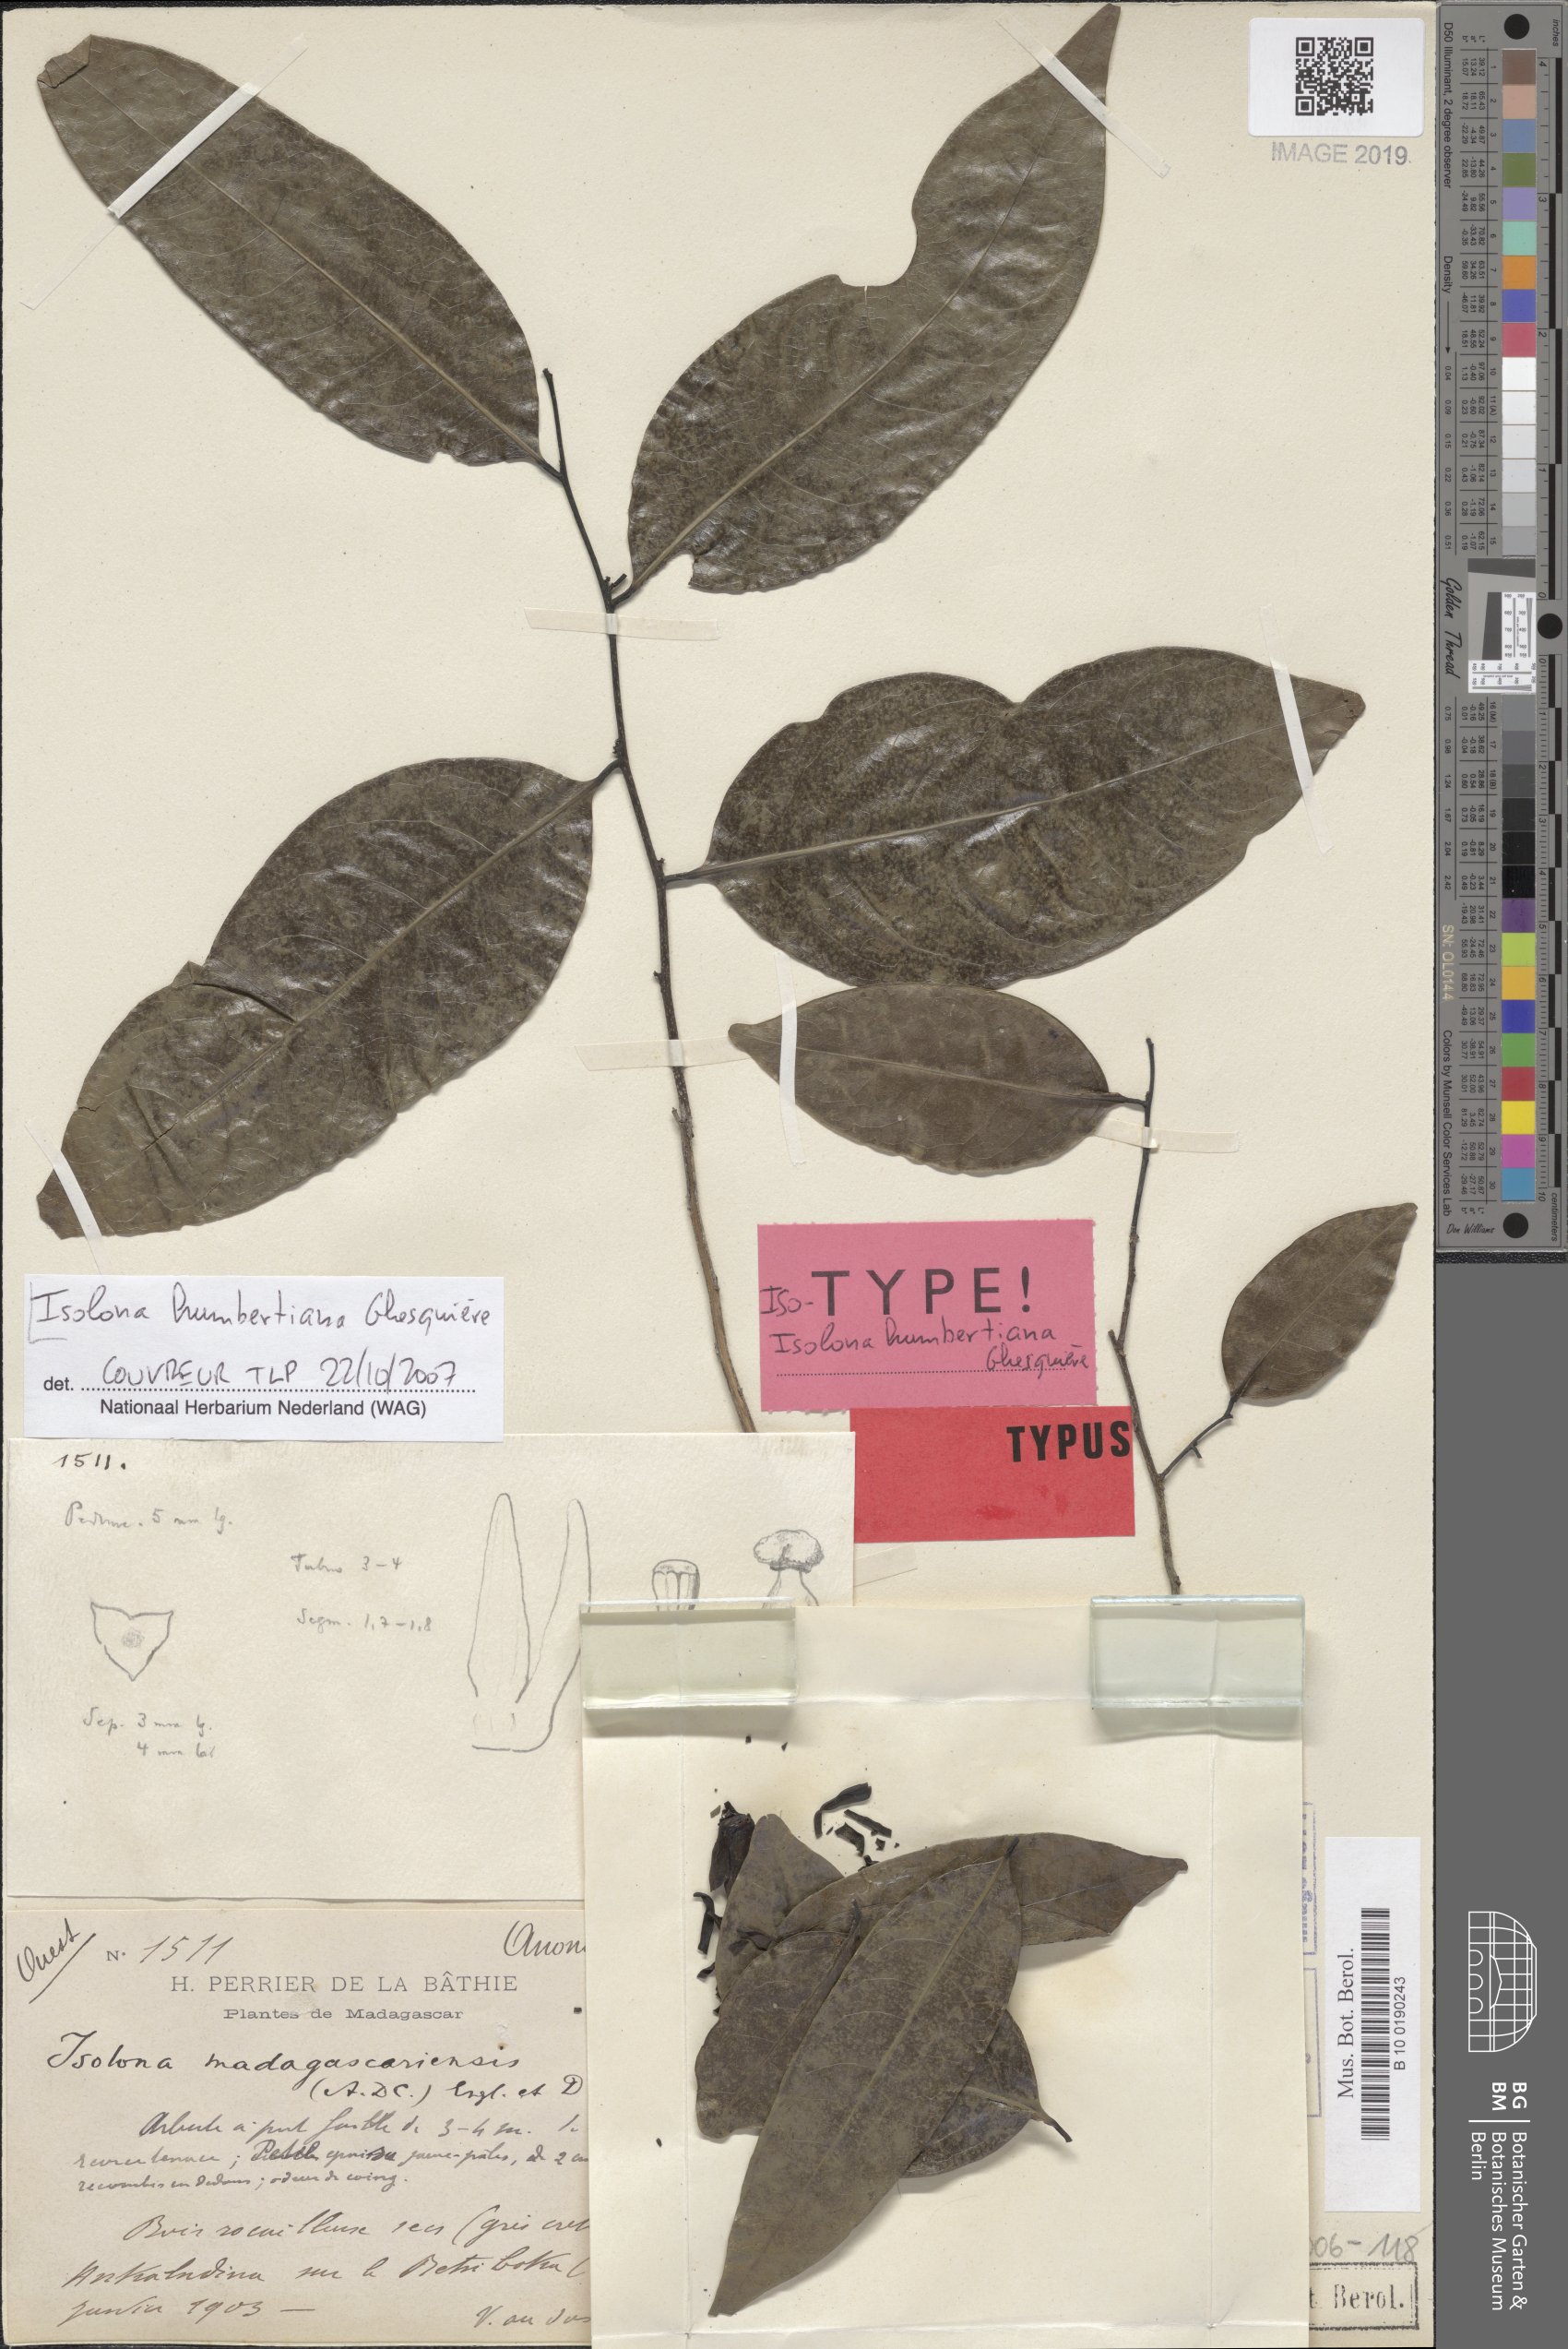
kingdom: Plantae
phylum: Tracheophyta
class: Magnoliopsida
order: Magnoliales
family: Annonaceae
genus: Isolona
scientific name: Isolona humbertiana
